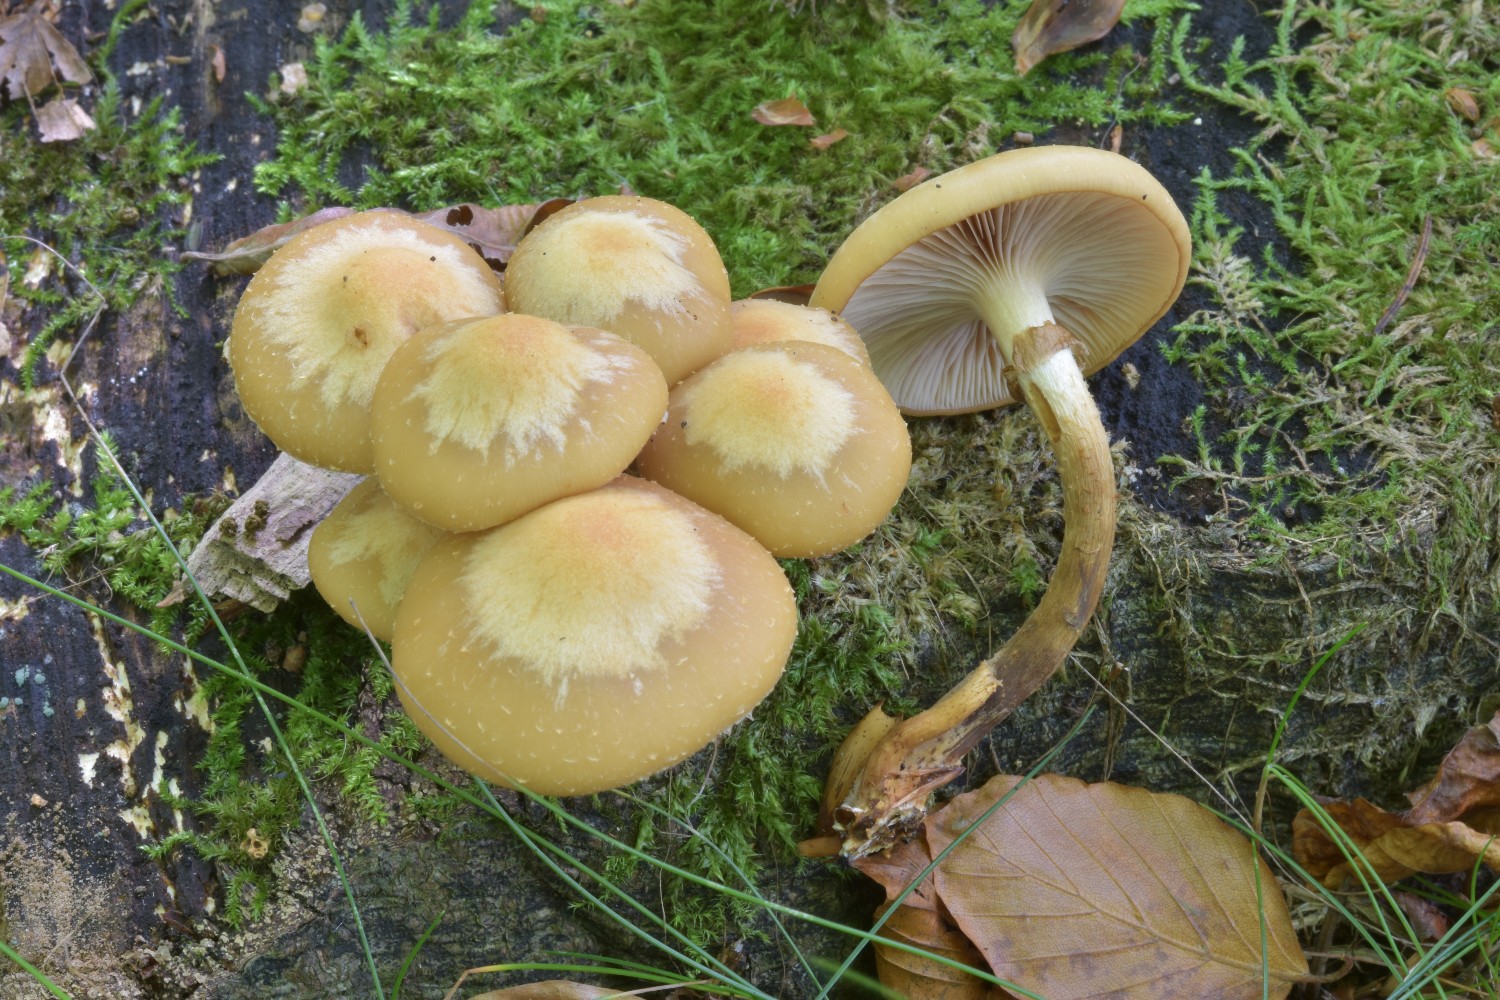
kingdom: Fungi
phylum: Basidiomycota
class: Agaricomycetes
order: Agaricales
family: Strophariaceae
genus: Kuehneromyces
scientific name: Kuehneromyces mutabilis
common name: foranderlig skælhat
